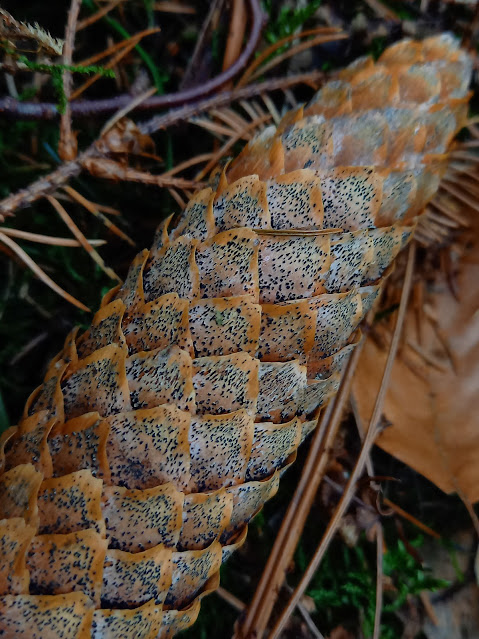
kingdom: Fungi
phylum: Ascomycota
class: Sordariomycetes
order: Diaporthales
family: Gnomoniaceae
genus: Sirococcus
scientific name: Sirococcus conigenus
